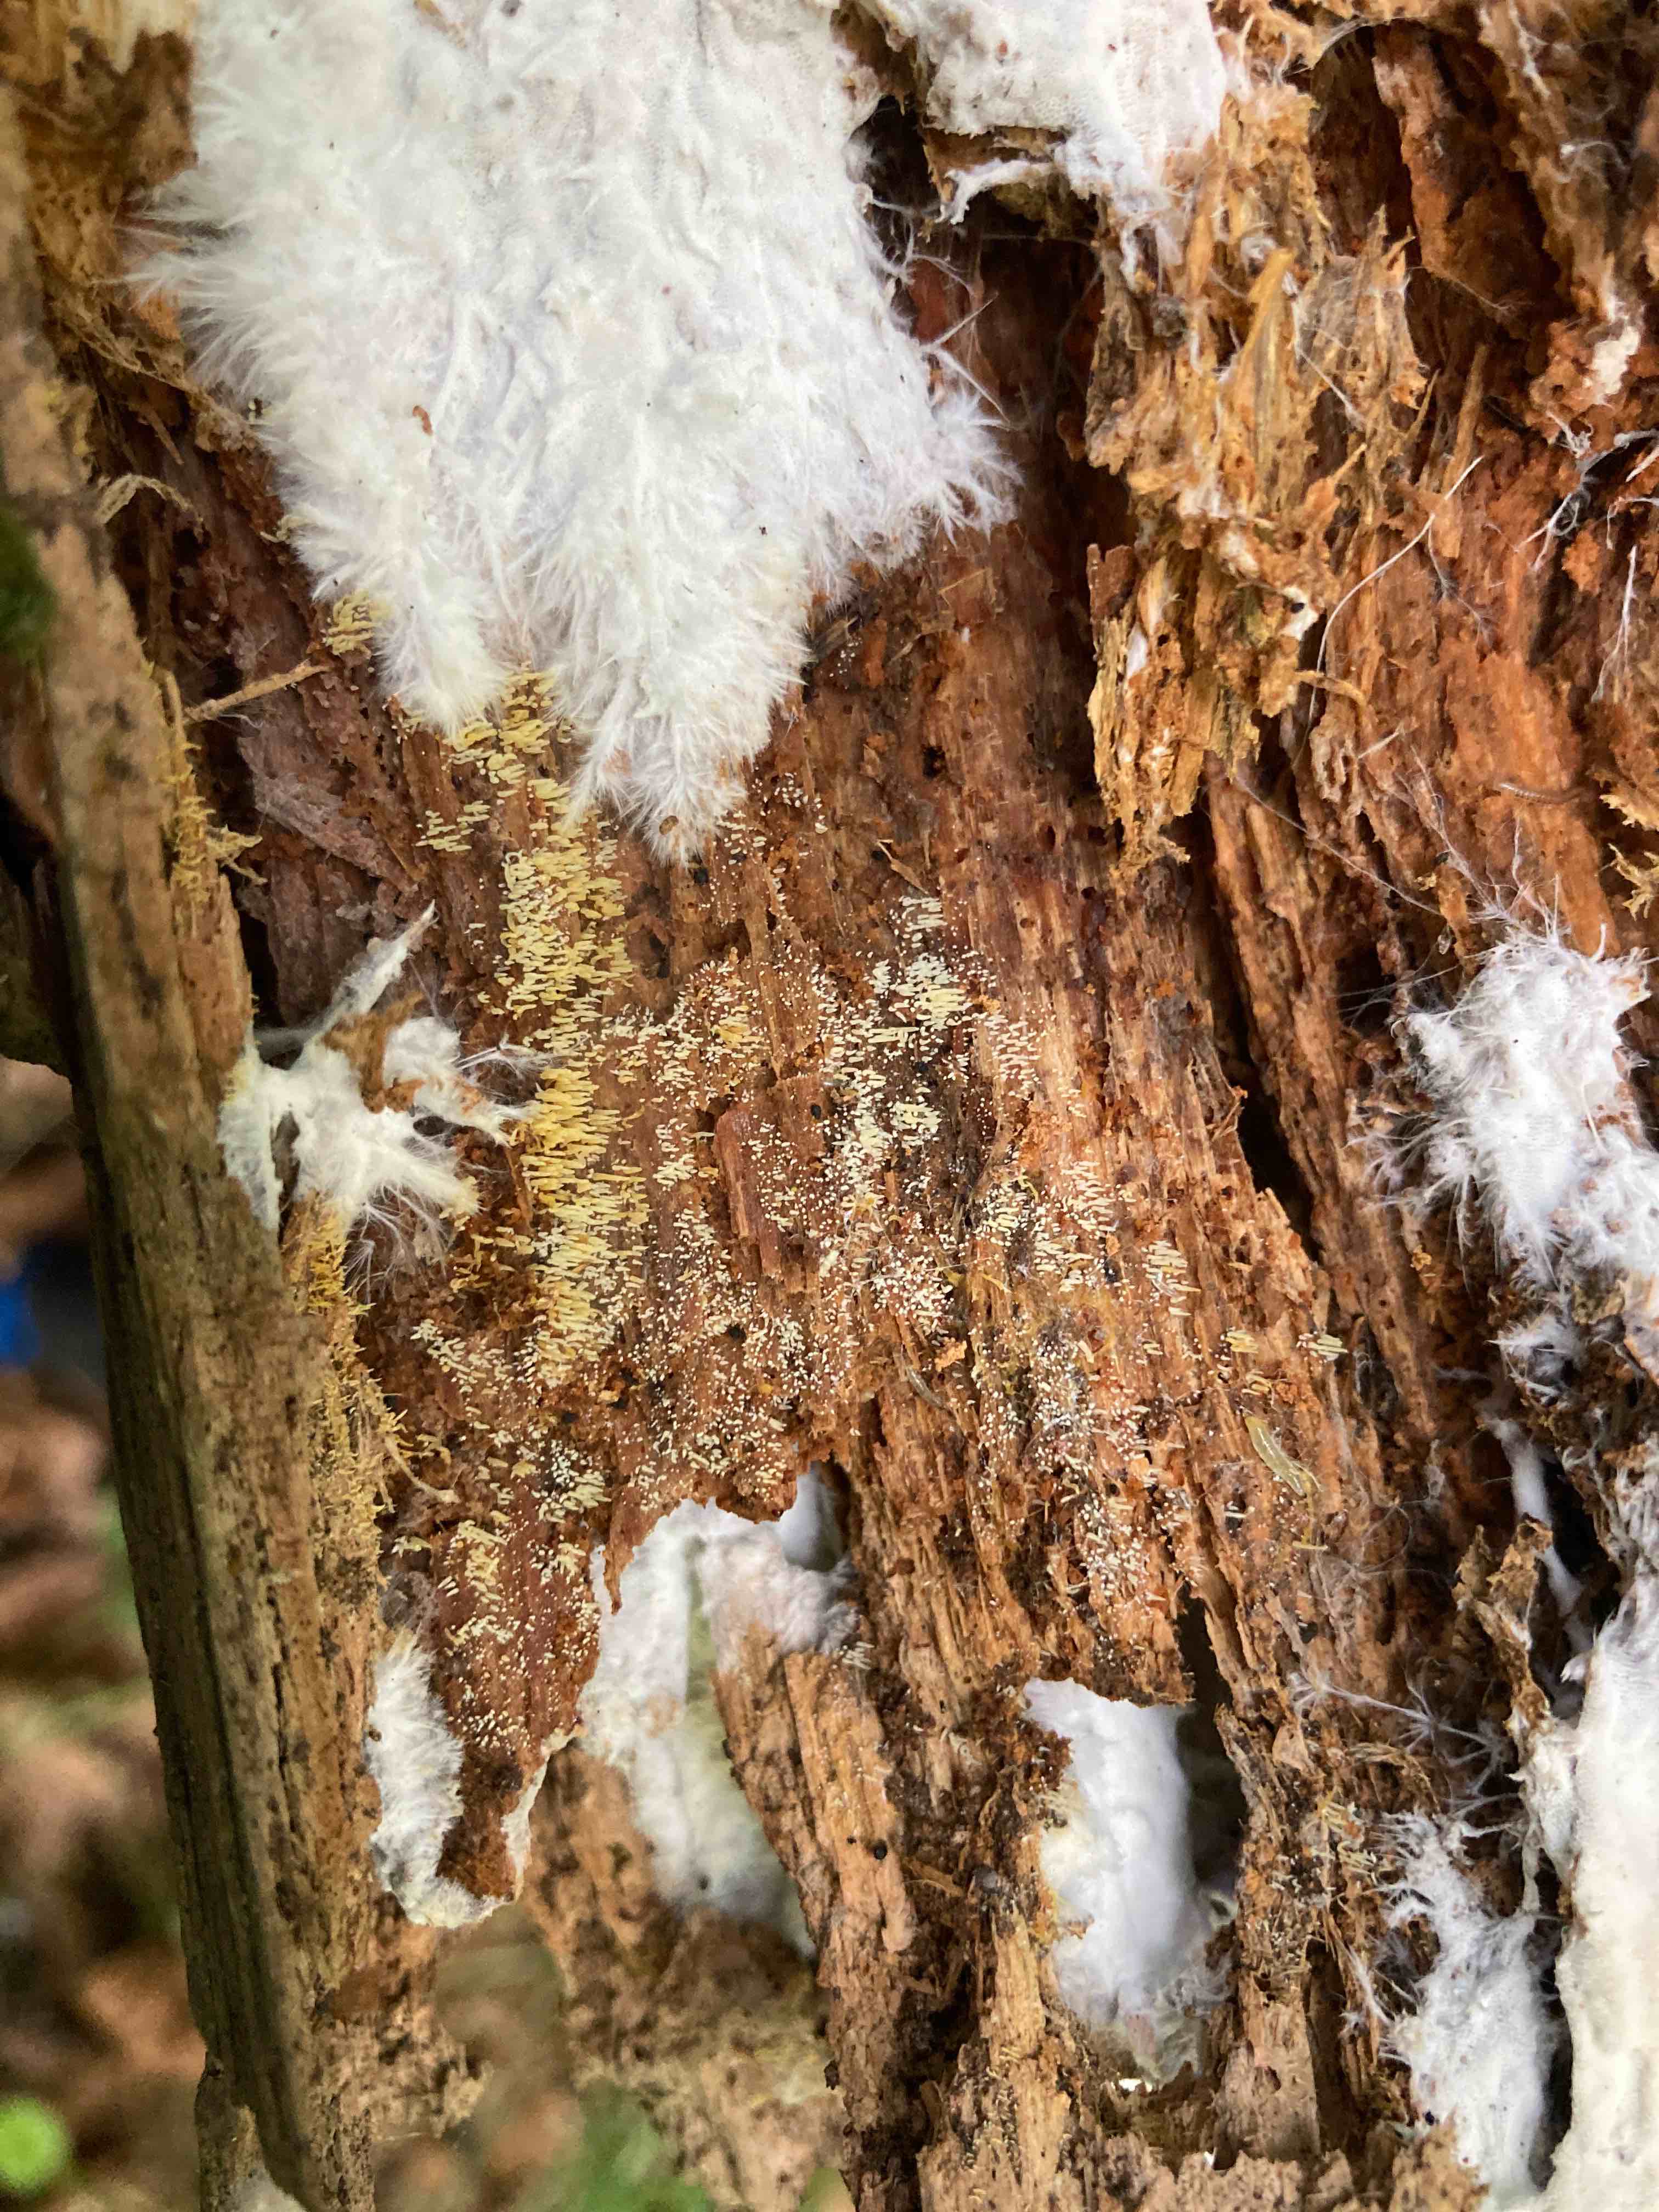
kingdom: Fungi
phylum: Basidiomycota
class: Agaricomycetes
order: Agaricales
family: Clavariaceae
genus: Mucronella
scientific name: Mucronella flava
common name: gul hængepig
